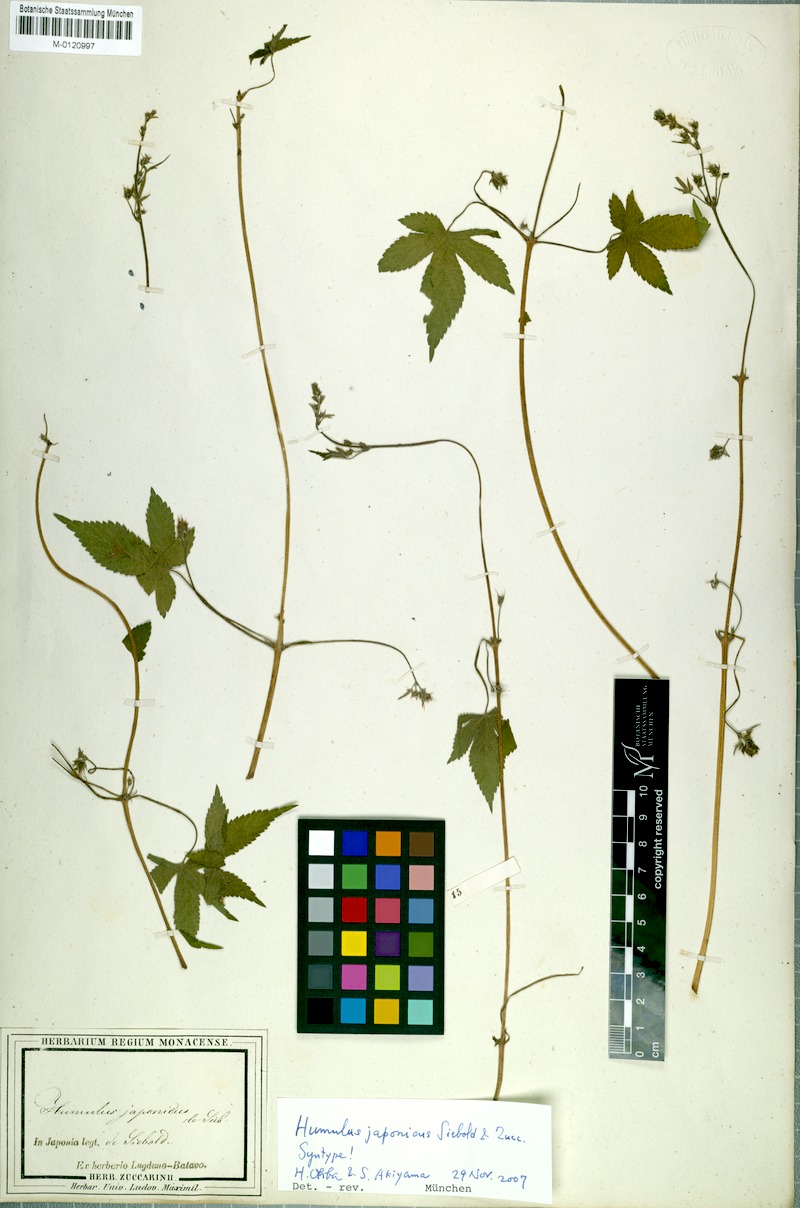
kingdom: Plantae
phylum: Tracheophyta
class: Magnoliopsida
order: Rosales
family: Cannabaceae
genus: Humulus
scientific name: Humulus scandens
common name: Japanese hop
